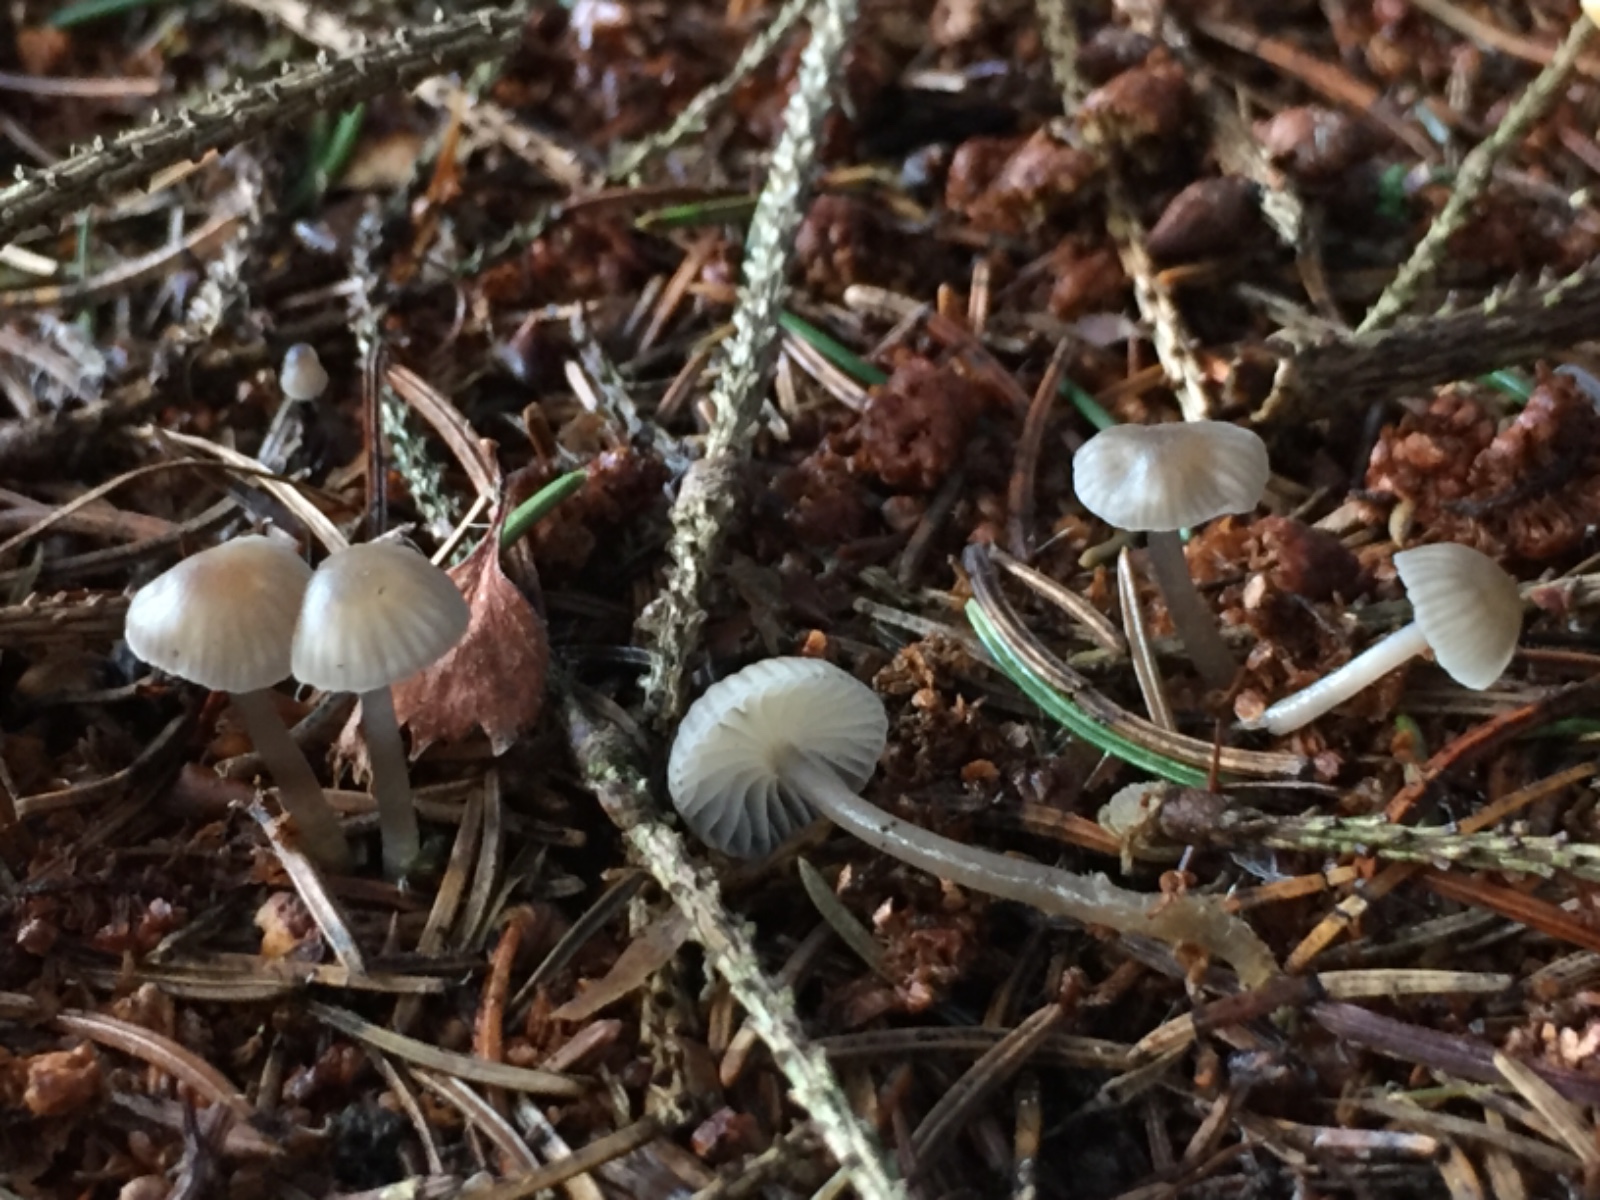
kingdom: Fungi
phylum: Basidiomycota
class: Agaricomycetes
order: Agaricales
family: Mycenaceae
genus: Mycena
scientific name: Mycena vulgaris
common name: klæbrig huesvamp
